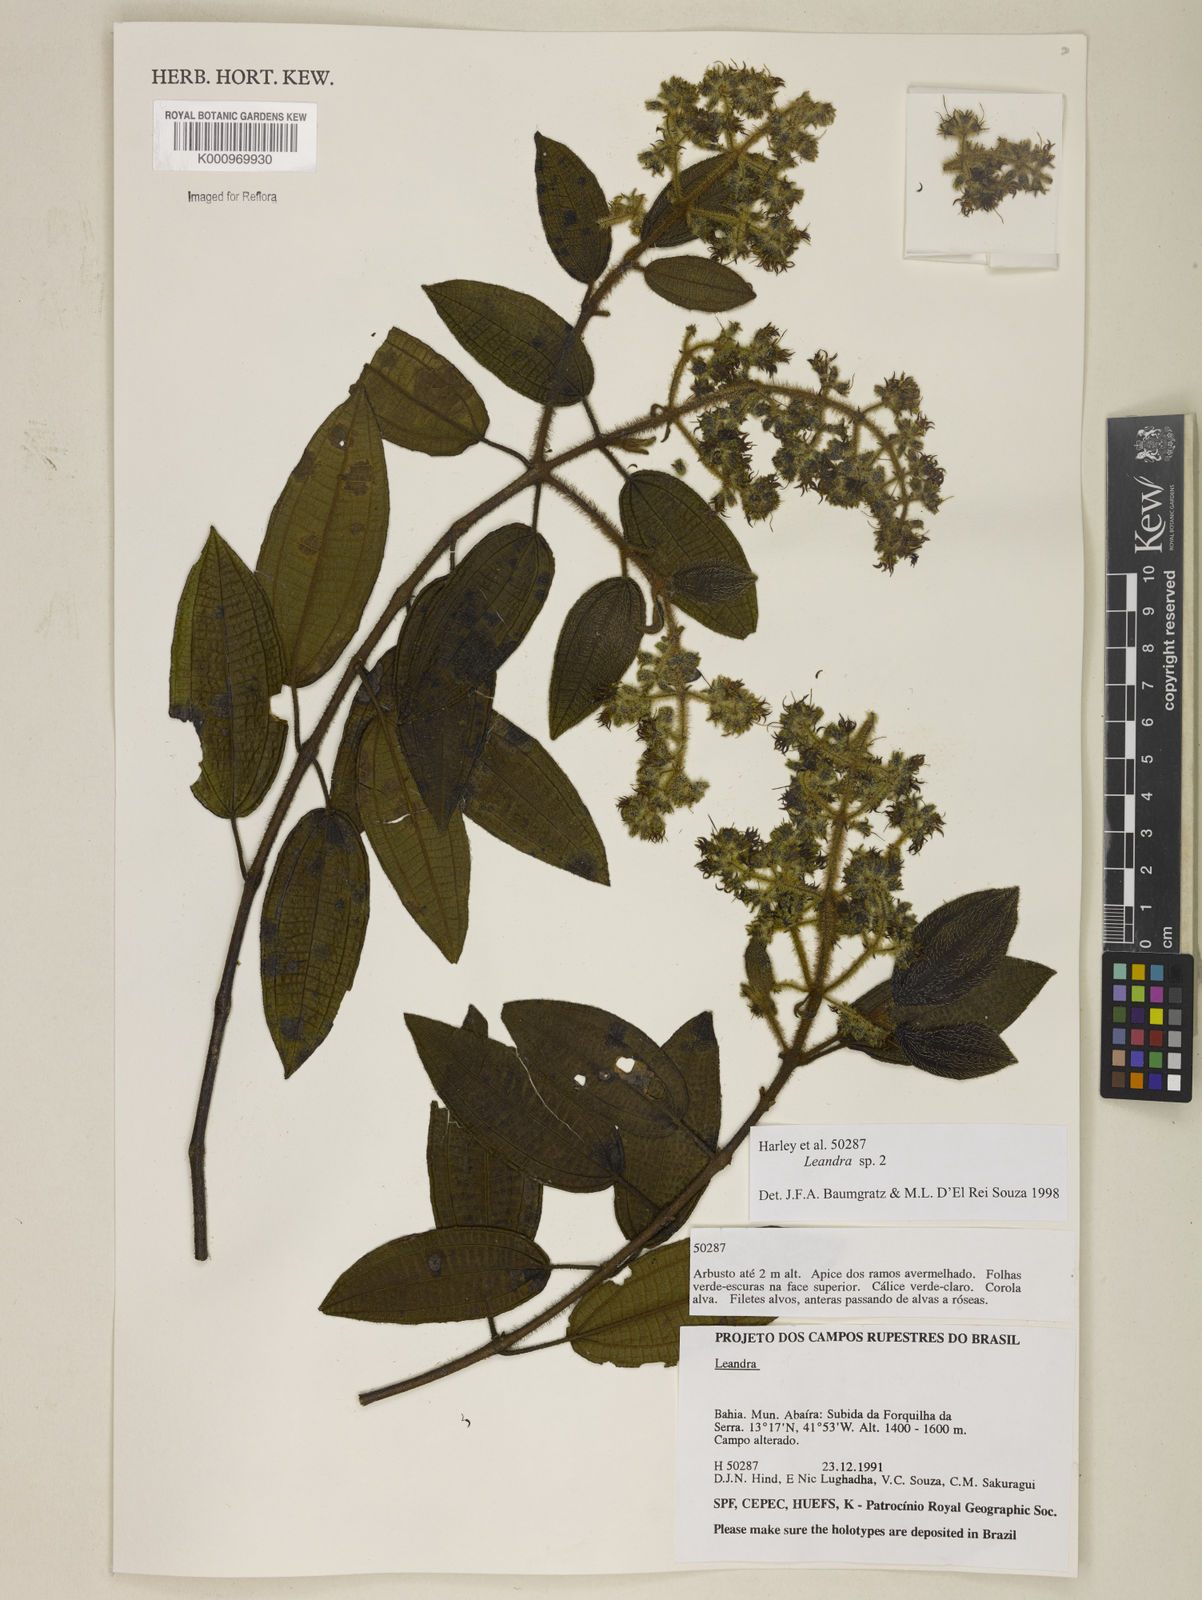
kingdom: Plantae
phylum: Tracheophyta
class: Magnoliopsida
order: Myrtales
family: Melastomataceae
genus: Miconia
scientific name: Miconia
